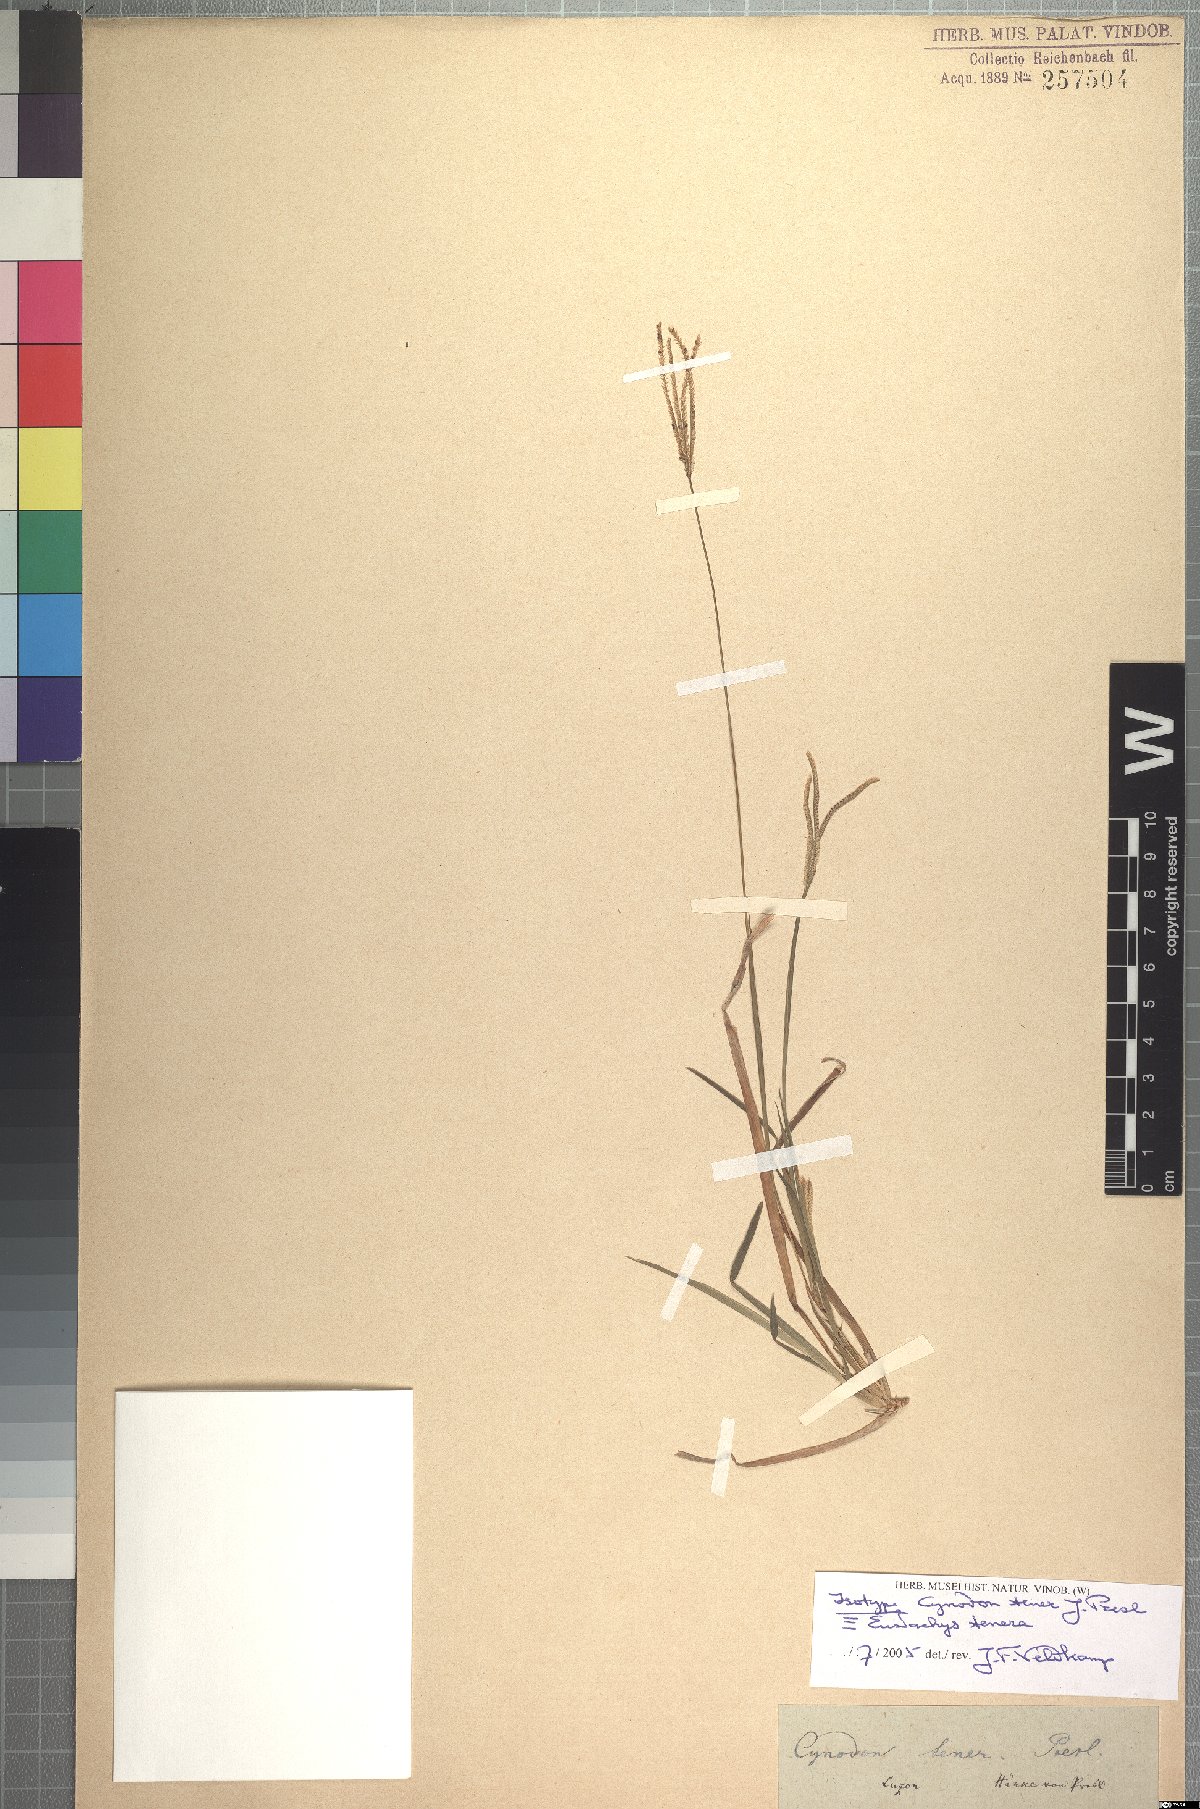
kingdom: Plantae
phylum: Tracheophyta
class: Liliopsida
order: Poales
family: Poaceae
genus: Eustachys
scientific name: Eustachys tenera
